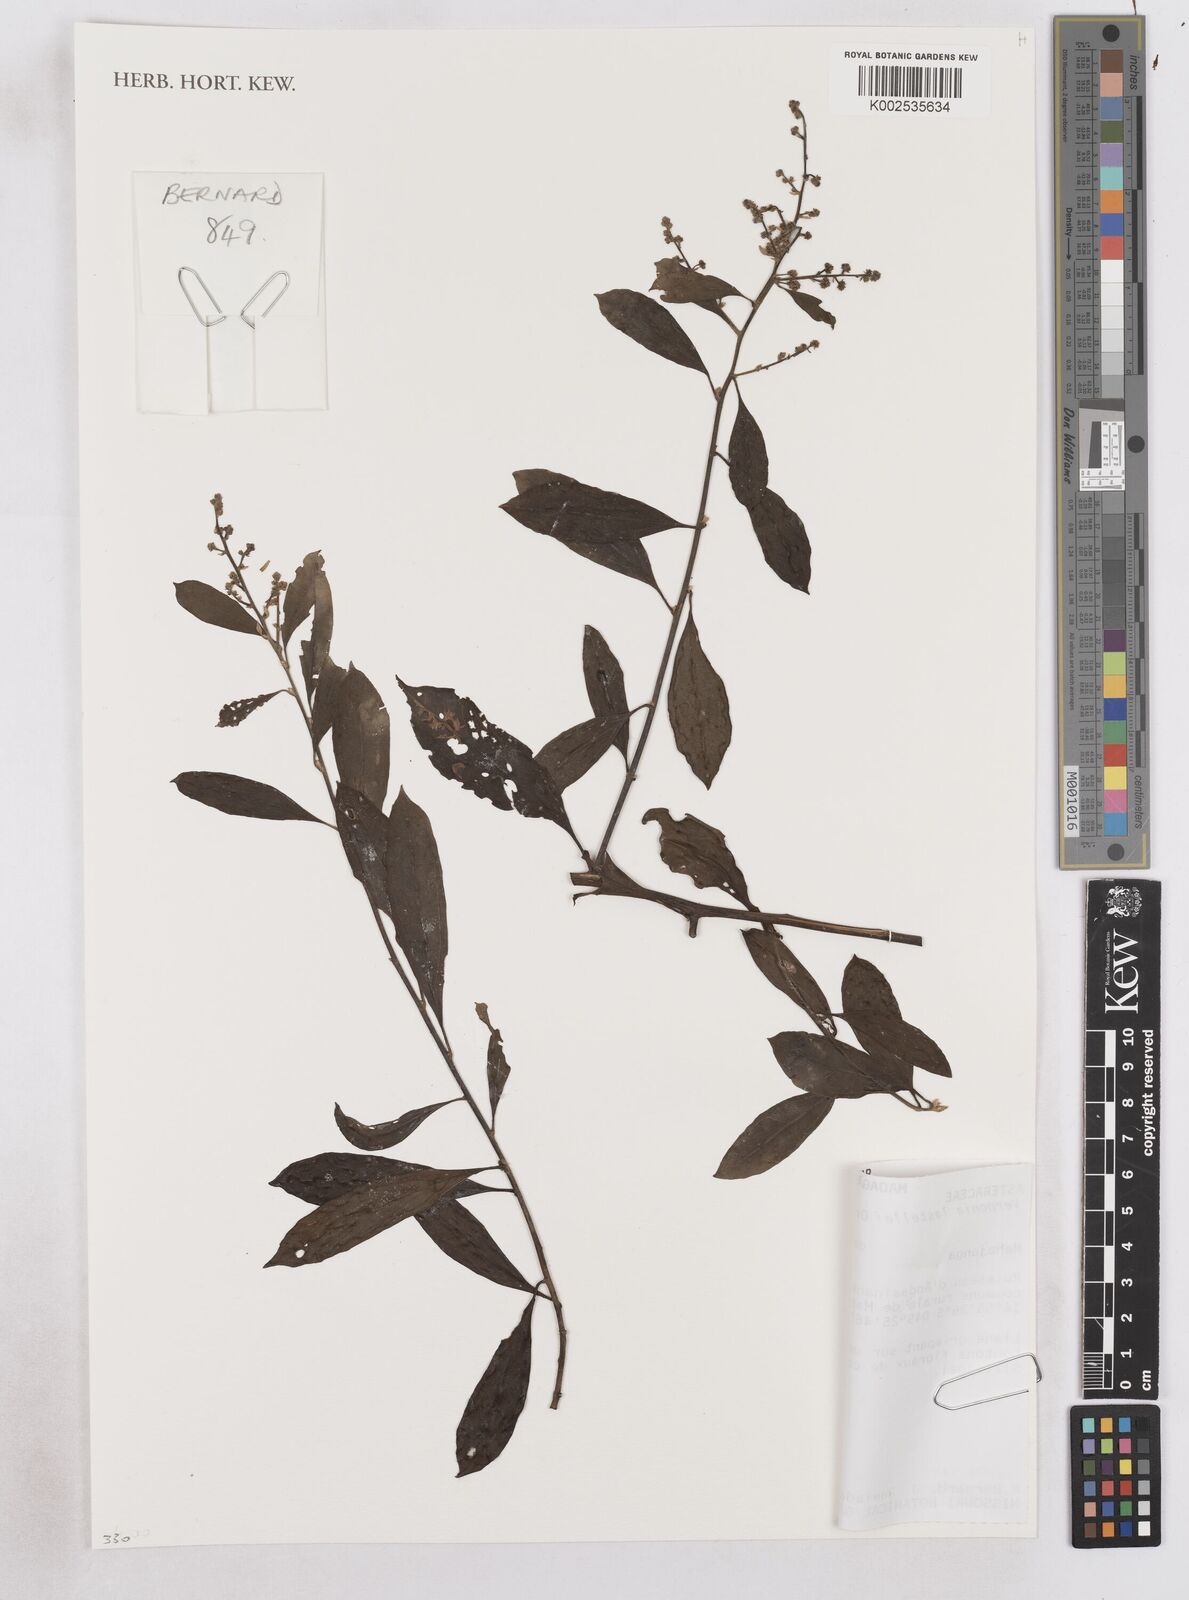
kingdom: Plantae
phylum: Tracheophyta
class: Magnoliopsida
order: Asterales
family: Asteraceae
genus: Distephanus
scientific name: Distephanus lastellei
